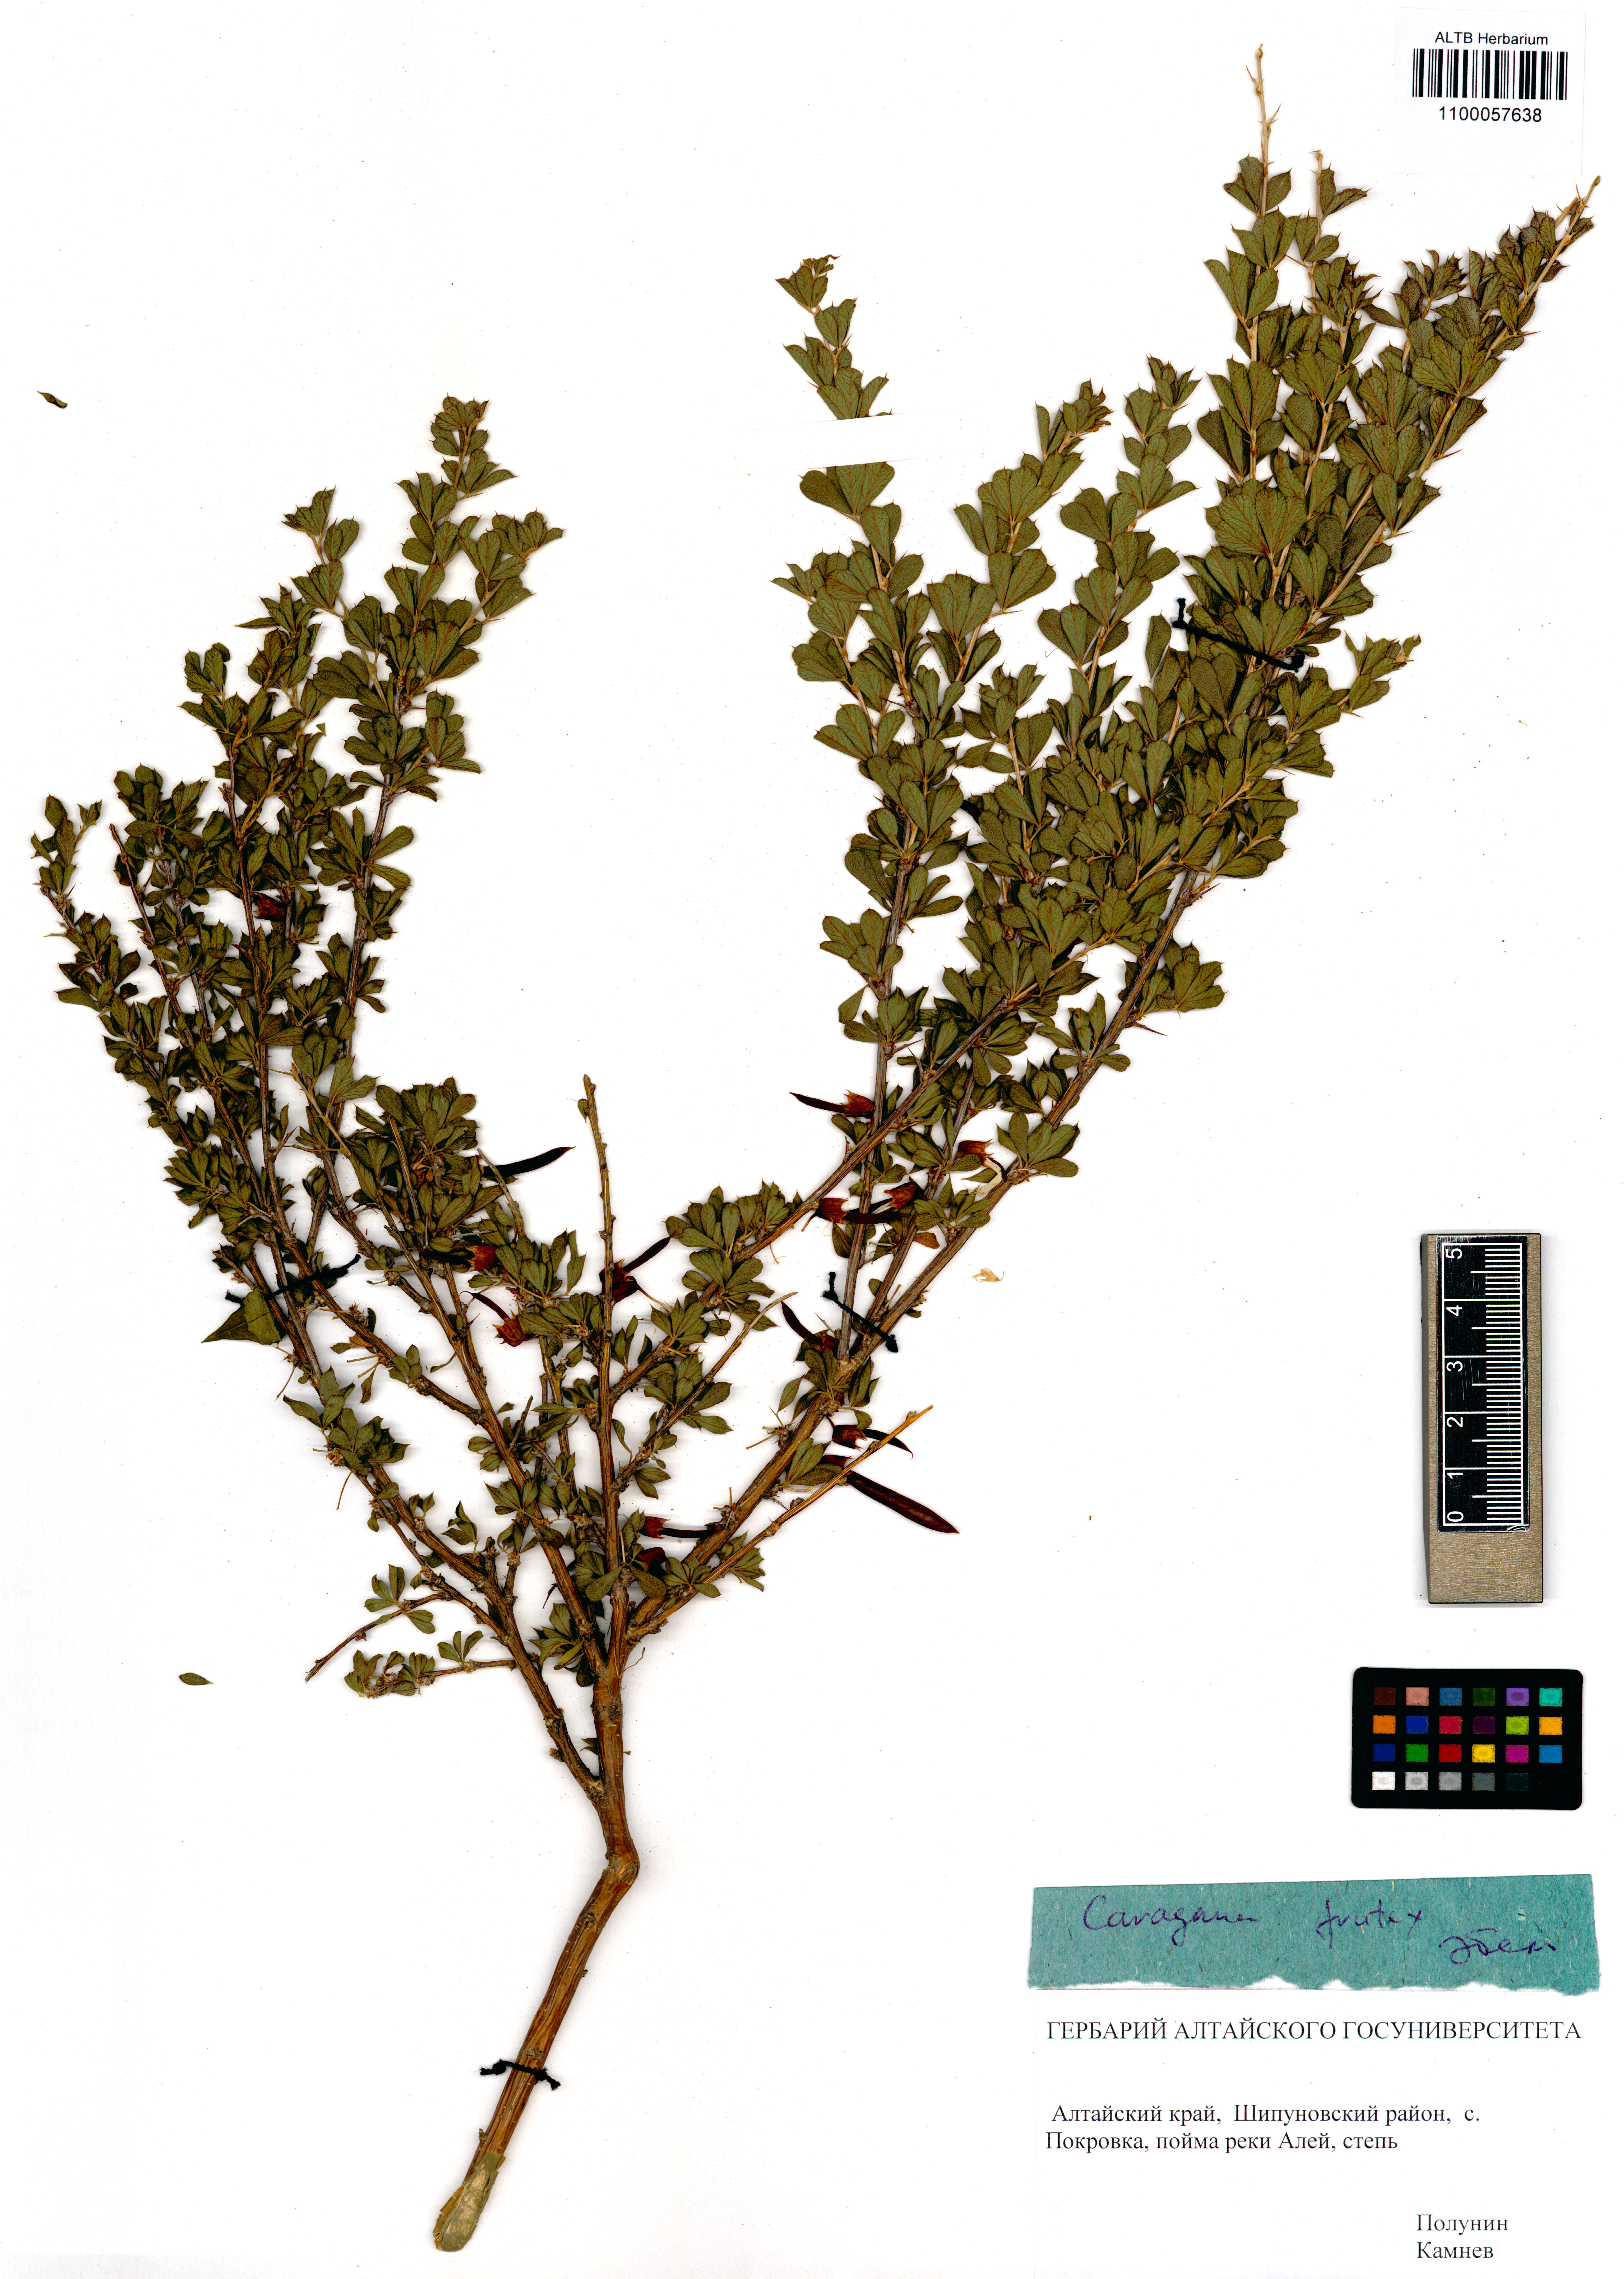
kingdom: Plantae
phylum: Tracheophyta
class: Magnoliopsida
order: Fabales
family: Fabaceae
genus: Caragana
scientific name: Caragana frutex
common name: Russian peashrub
